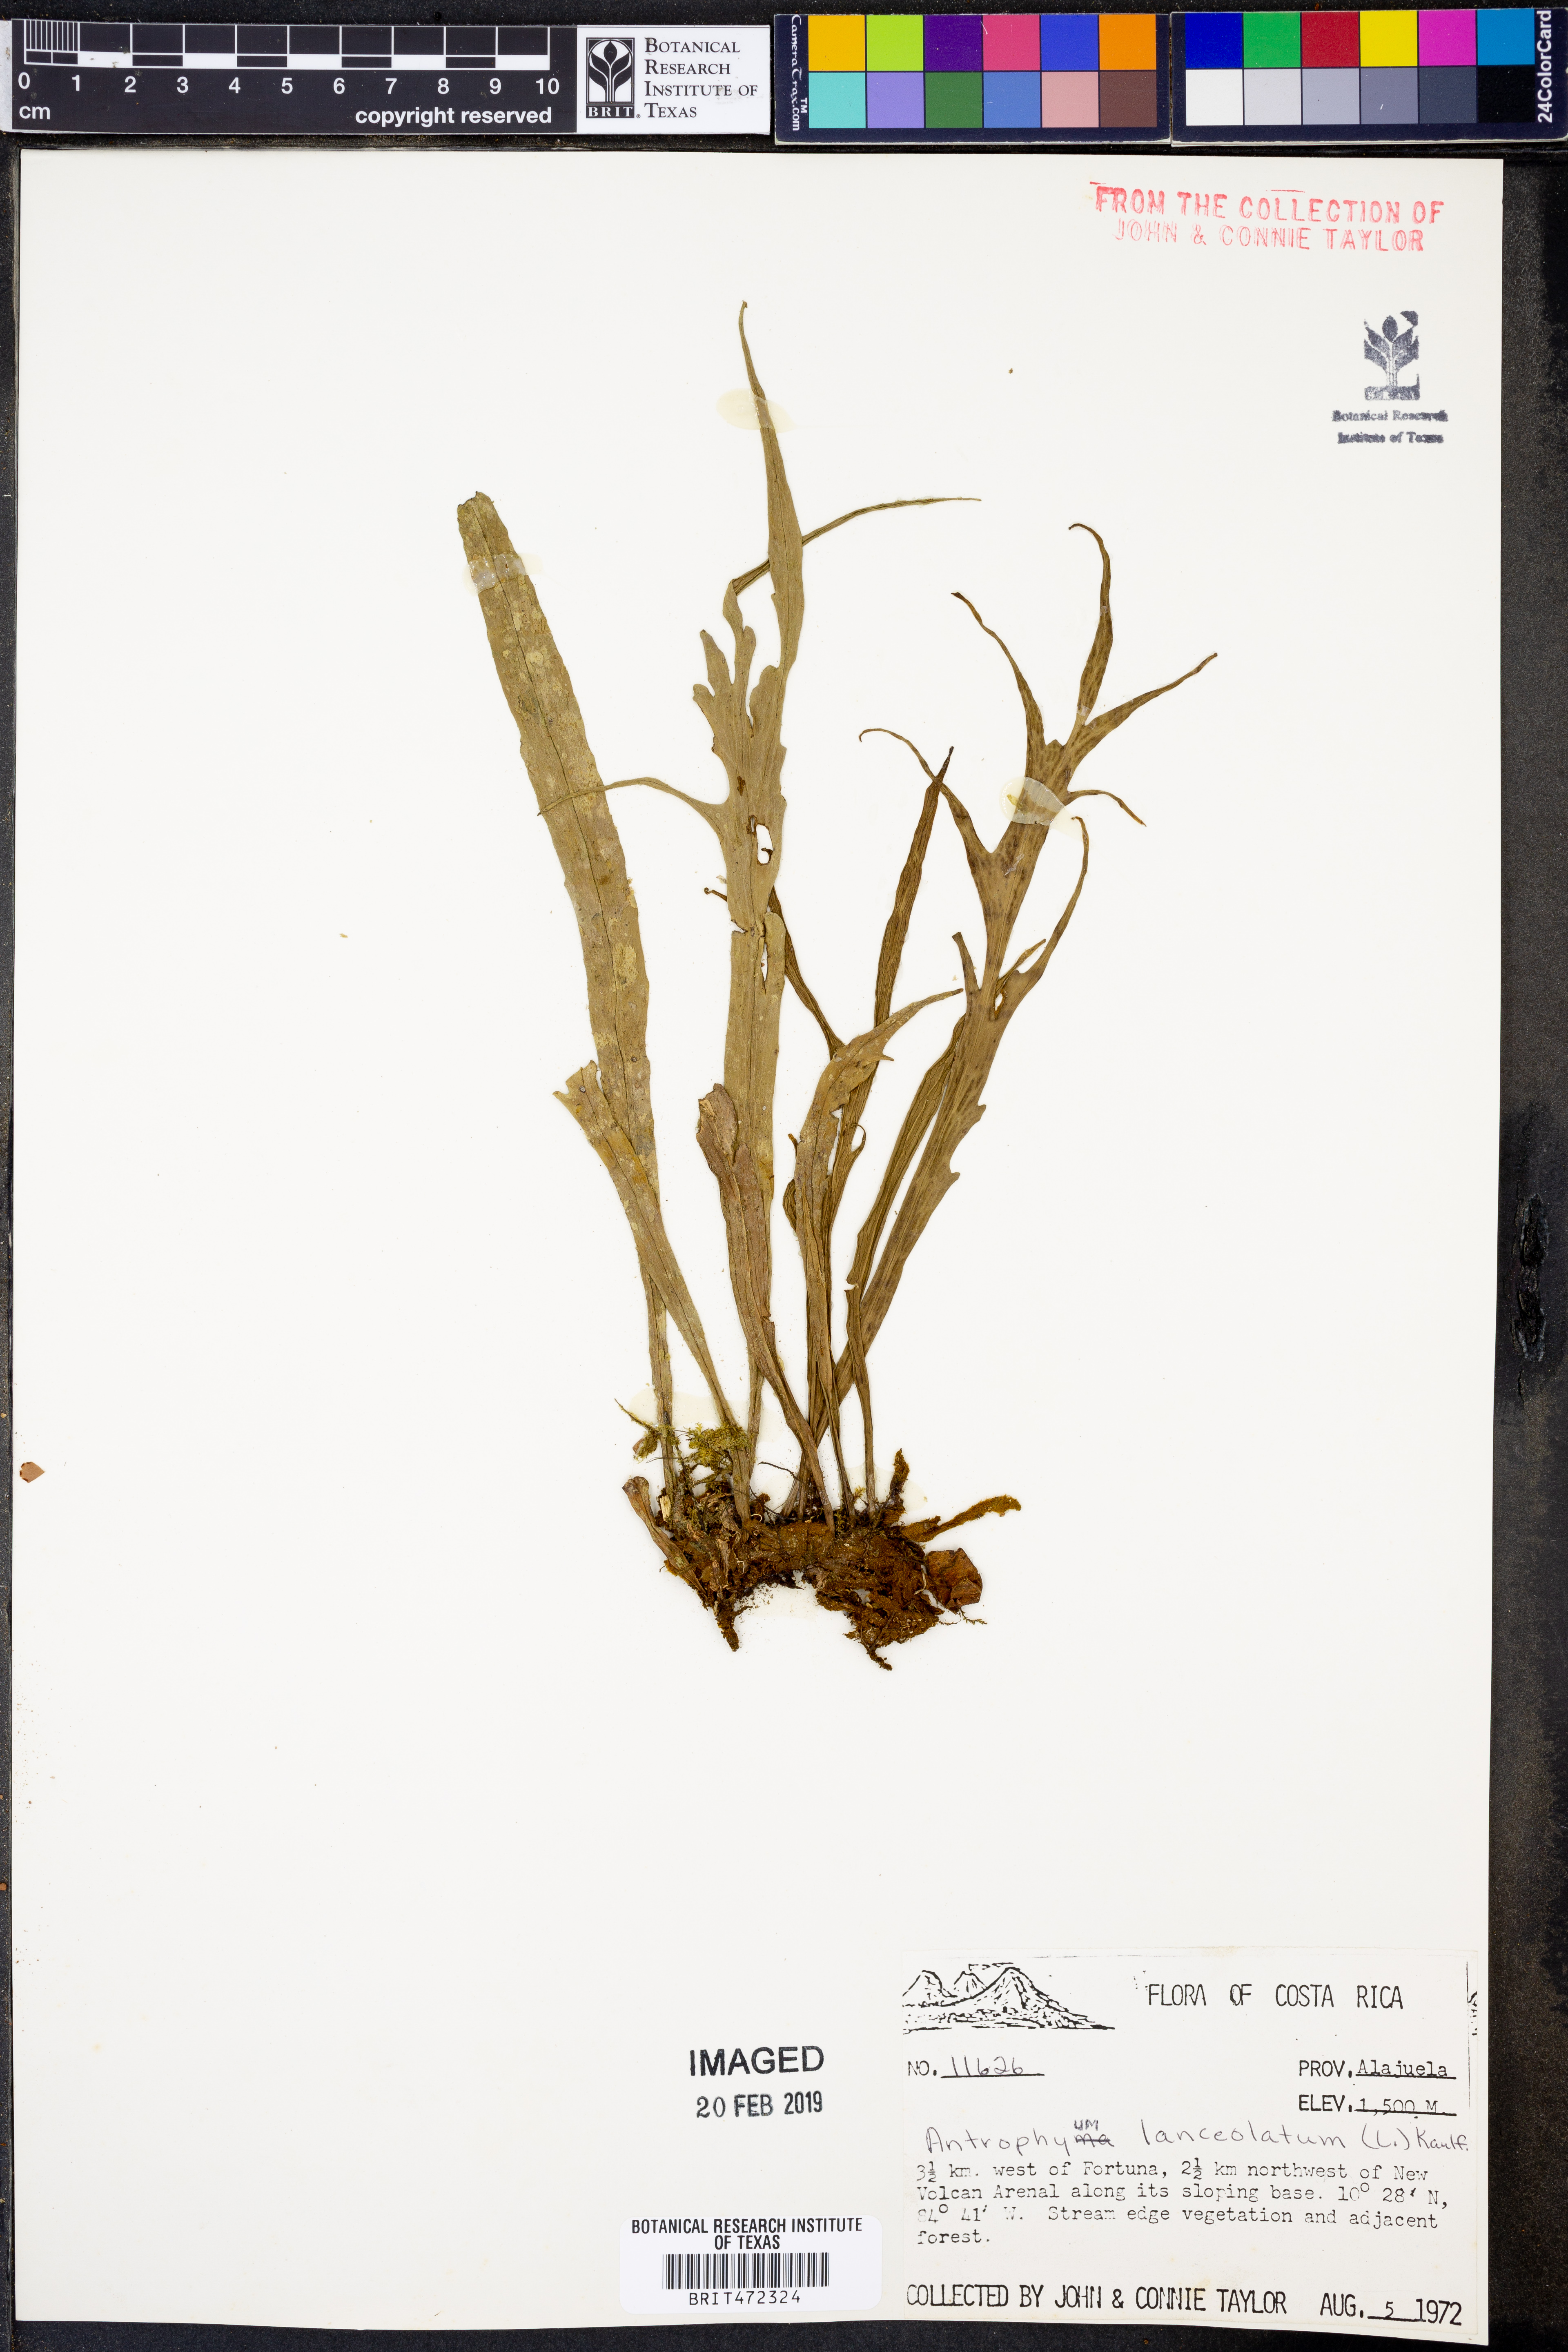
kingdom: Plantae
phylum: Tracheophyta
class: Polypodiopsida
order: Polypodiales
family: Pteridaceae
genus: Polytaenium
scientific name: Polytaenium feei
